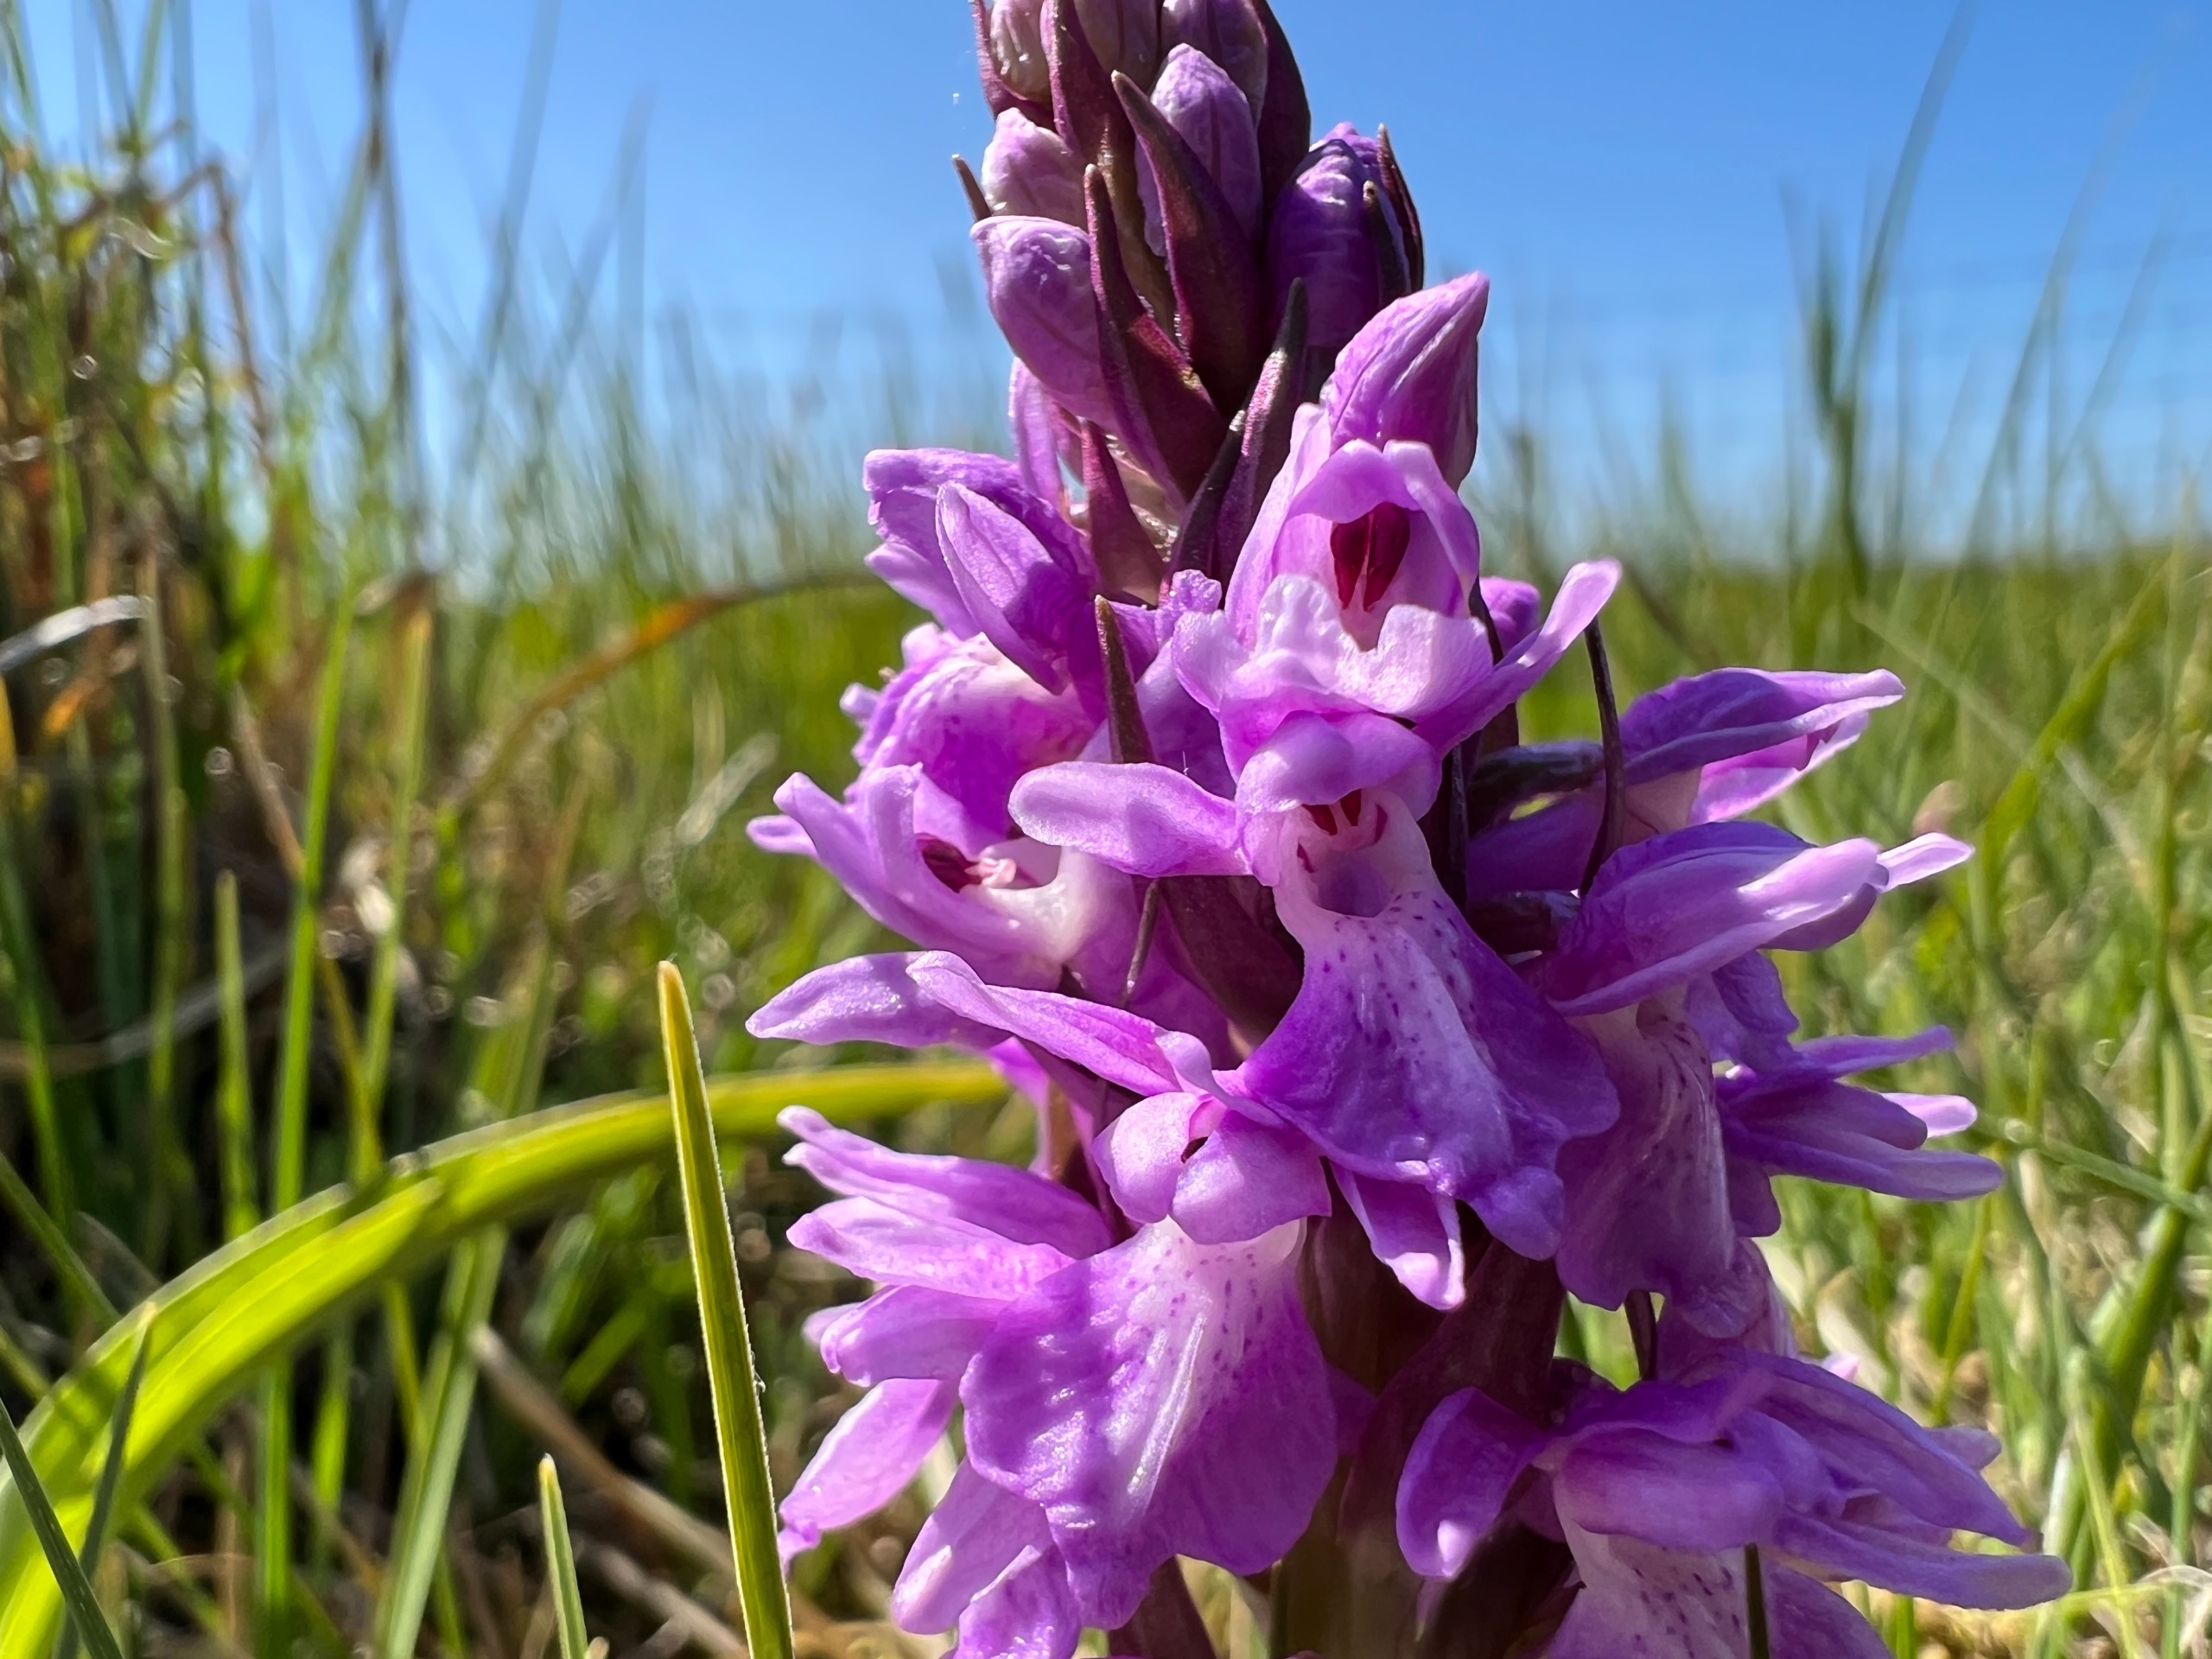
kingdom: Plantae
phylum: Tracheophyta
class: Liliopsida
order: Asparagales
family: Orchidaceae
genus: Dactylorhiza
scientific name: Dactylorhiza majalis
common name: Mos-gøgeurt
